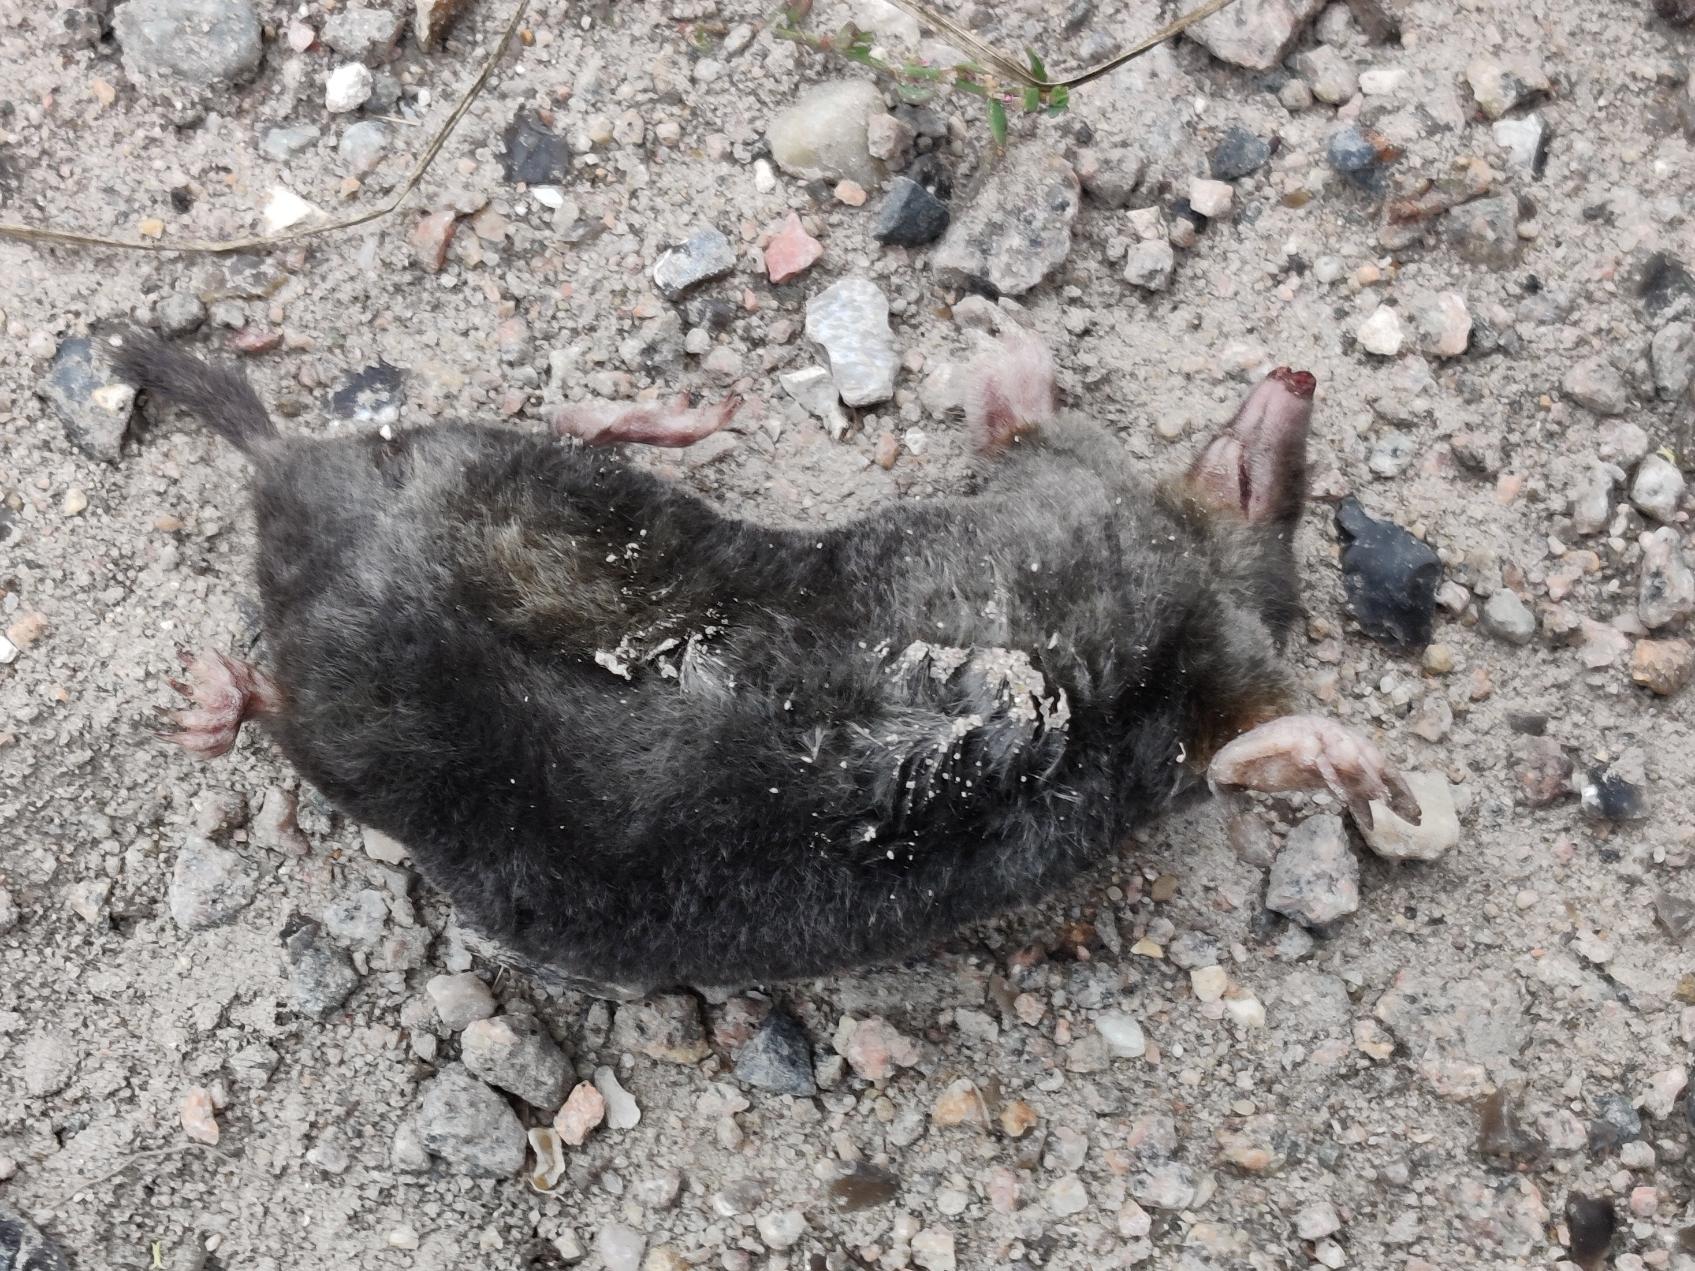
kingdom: Animalia
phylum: Chordata
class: Mammalia
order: Soricomorpha
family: Talpidae
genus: Talpa
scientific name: Talpa europaea
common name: Muldvarp
